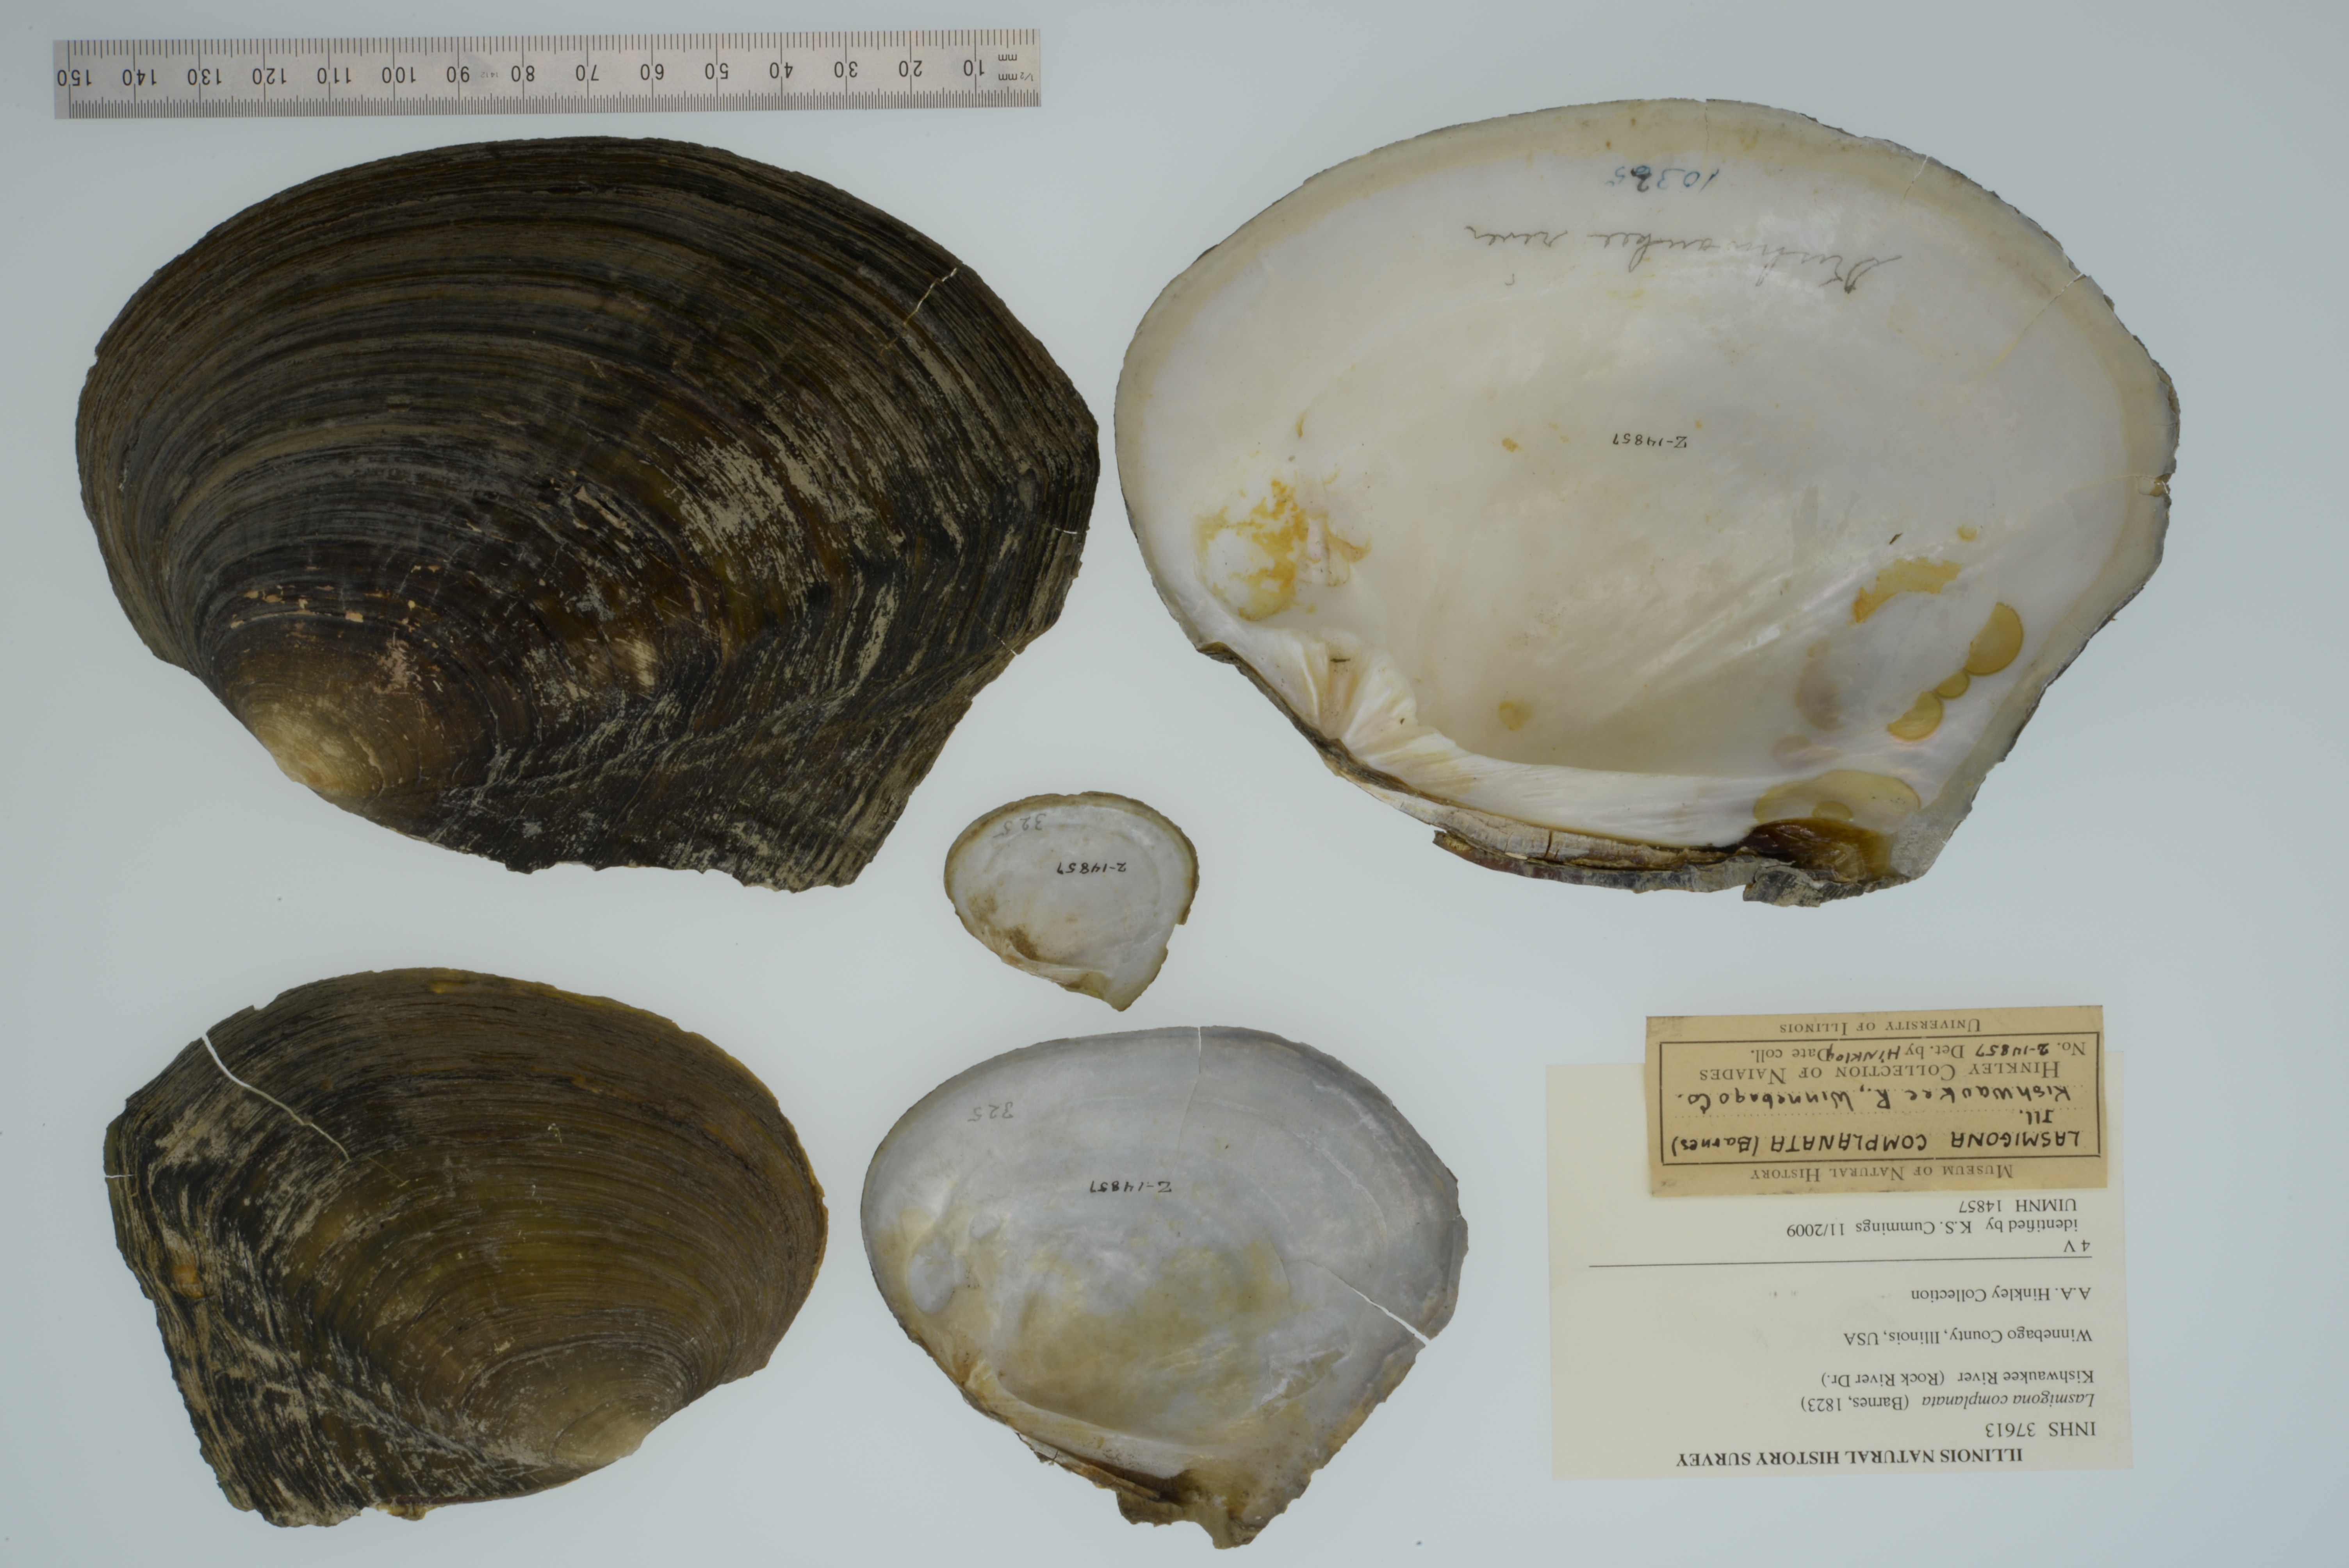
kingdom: Animalia
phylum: Mollusca
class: Bivalvia
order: Unionida
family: Unionidae
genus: Lasmigona
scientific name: Lasmigona complanata
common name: White heelsplitter
